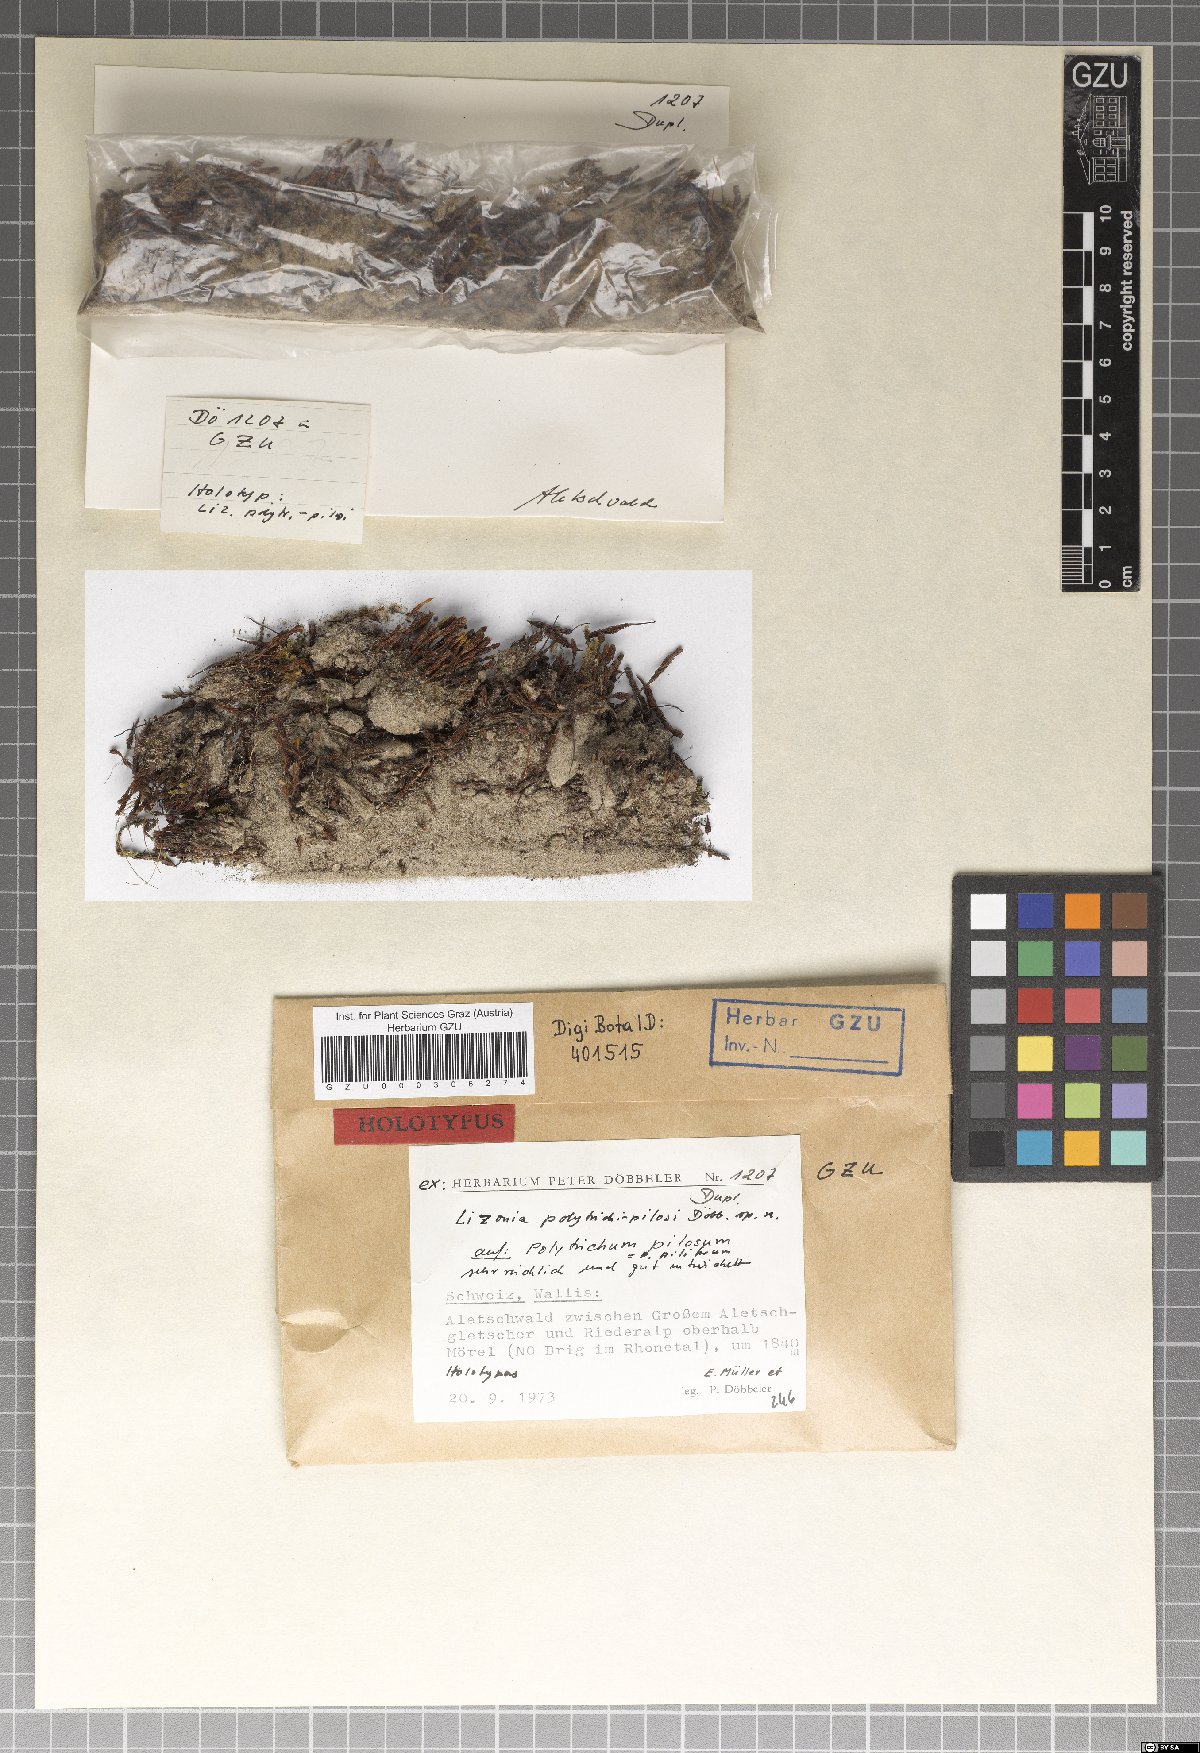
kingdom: Fungi
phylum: Ascomycota
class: Dothideomycetes
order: Pleosporales
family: Lizoniaceae
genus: Lizonia
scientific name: Lizonia polytrichi-pilosi
